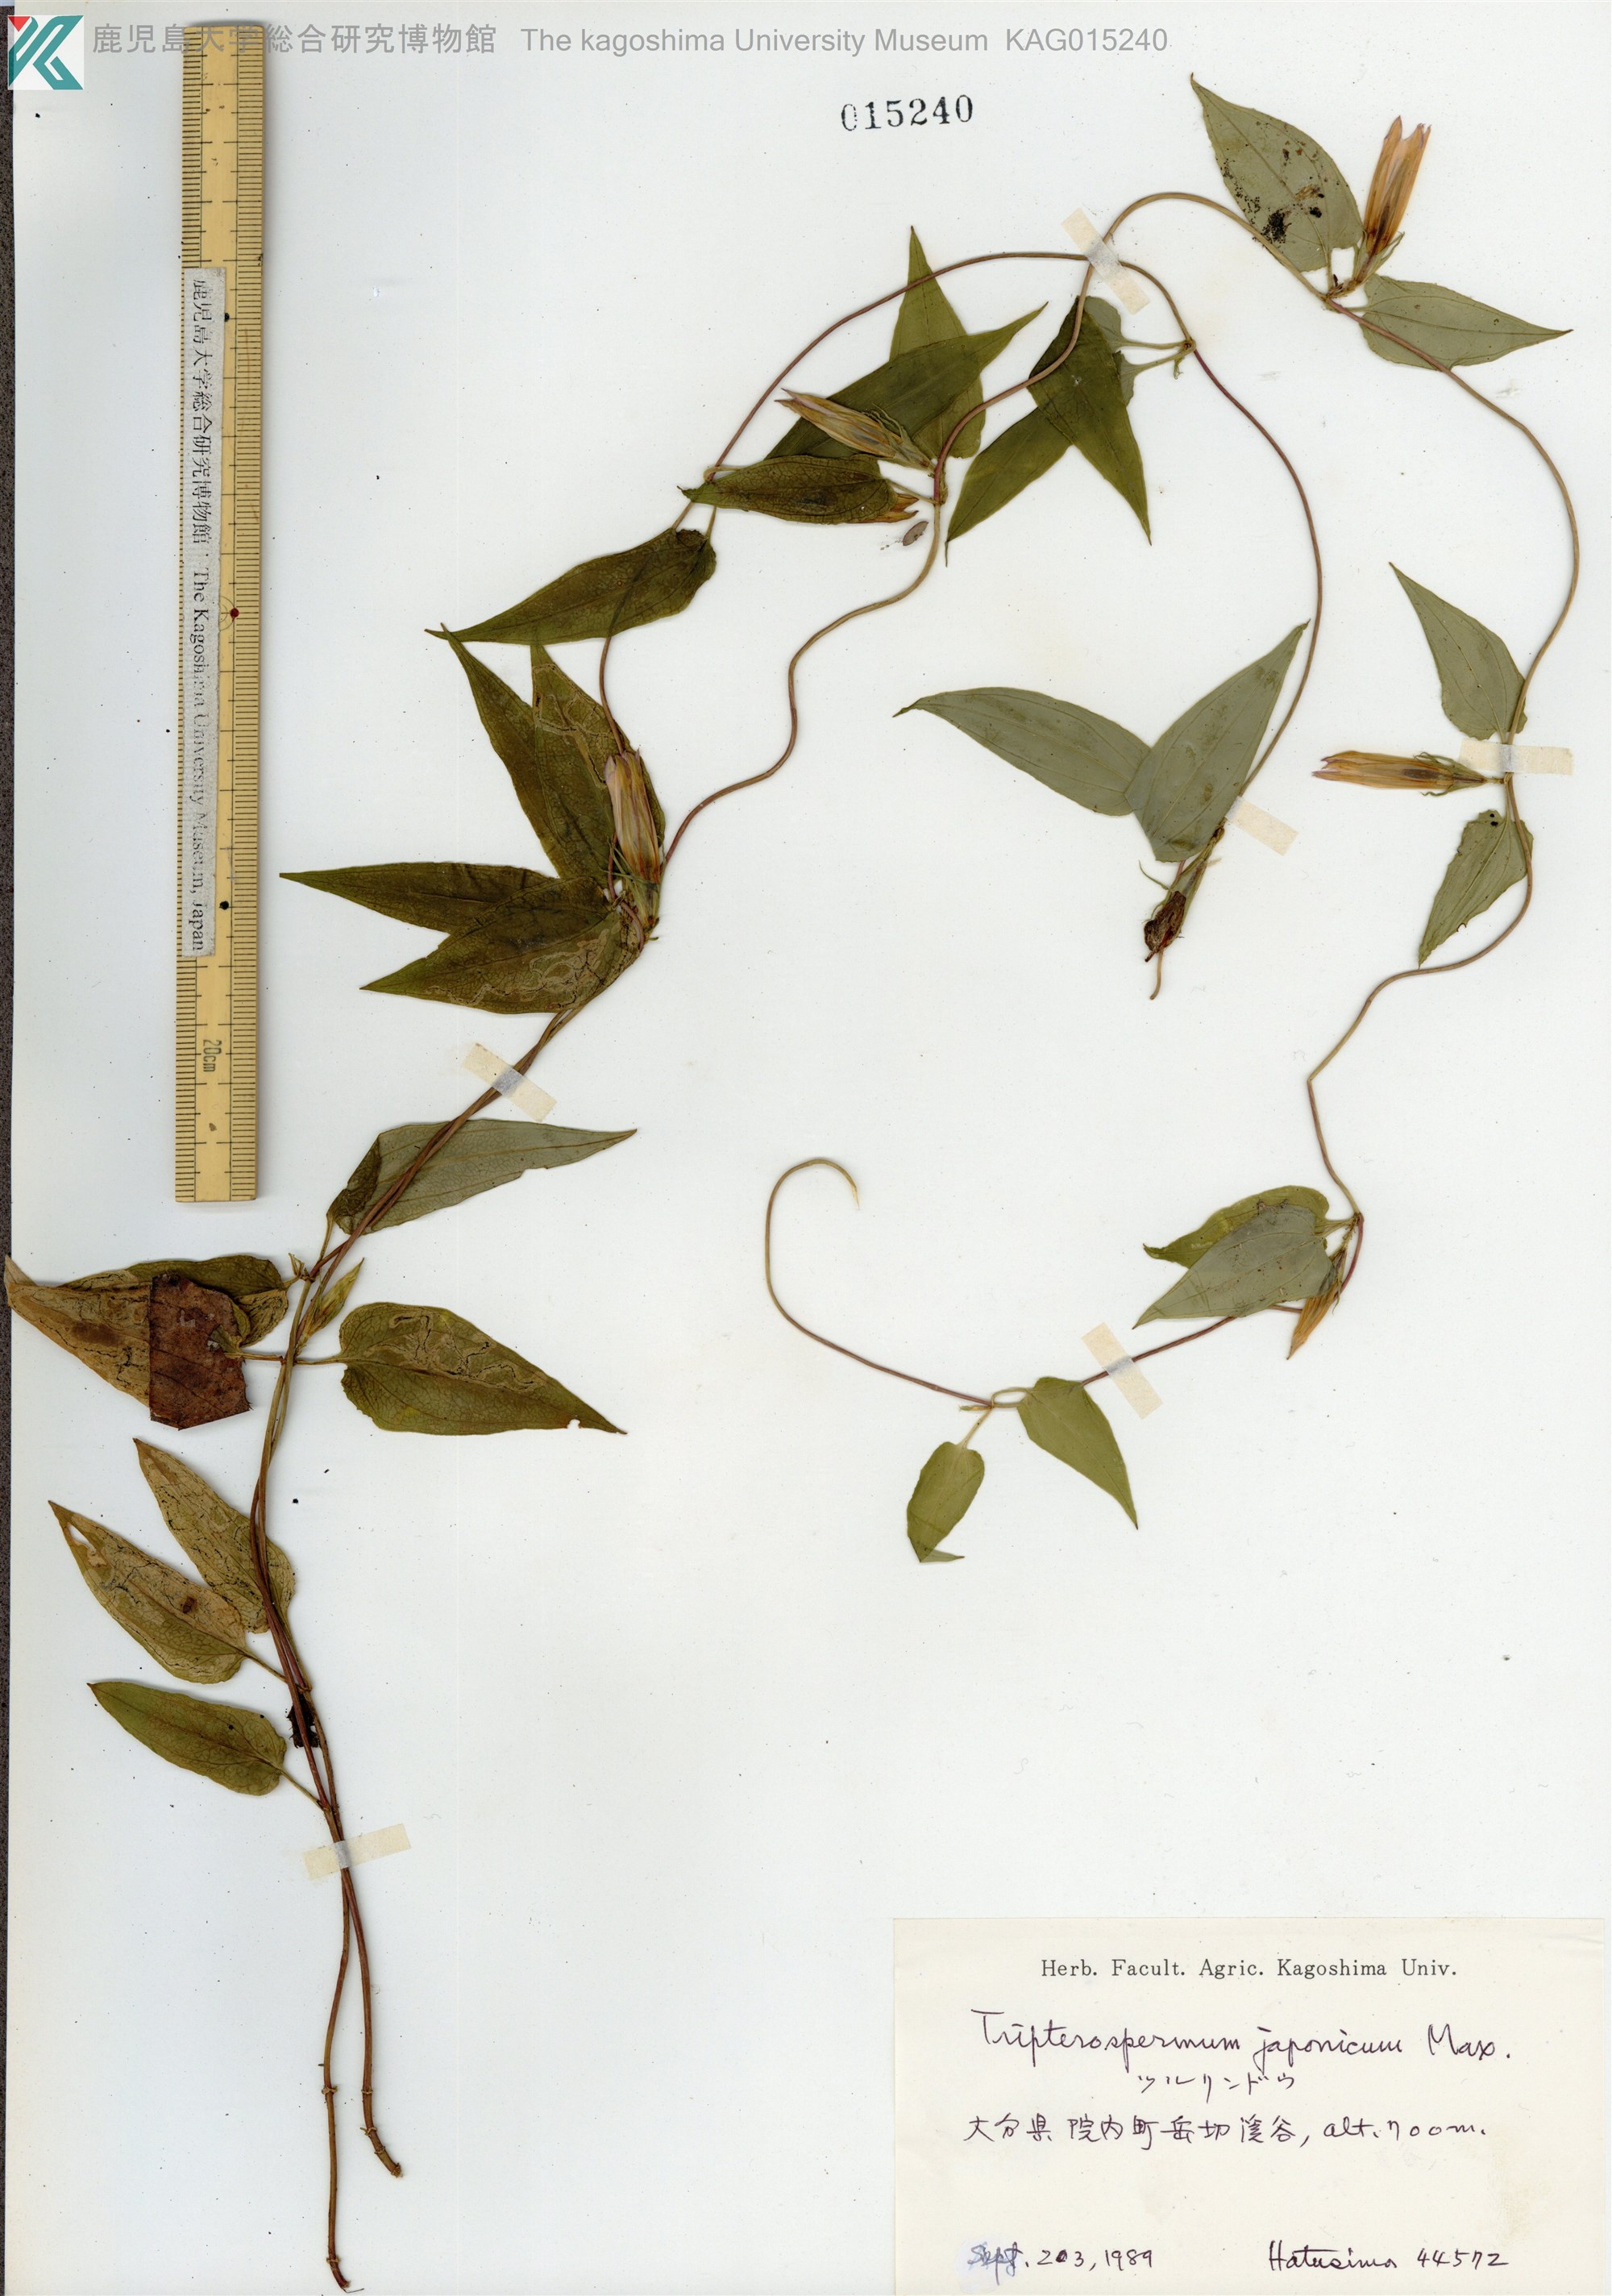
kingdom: Plantae
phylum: Tracheophyta
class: Magnoliopsida
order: Gentianales
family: Gentianaceae
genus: Tripterospermum
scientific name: Tripterospermum trinervium
